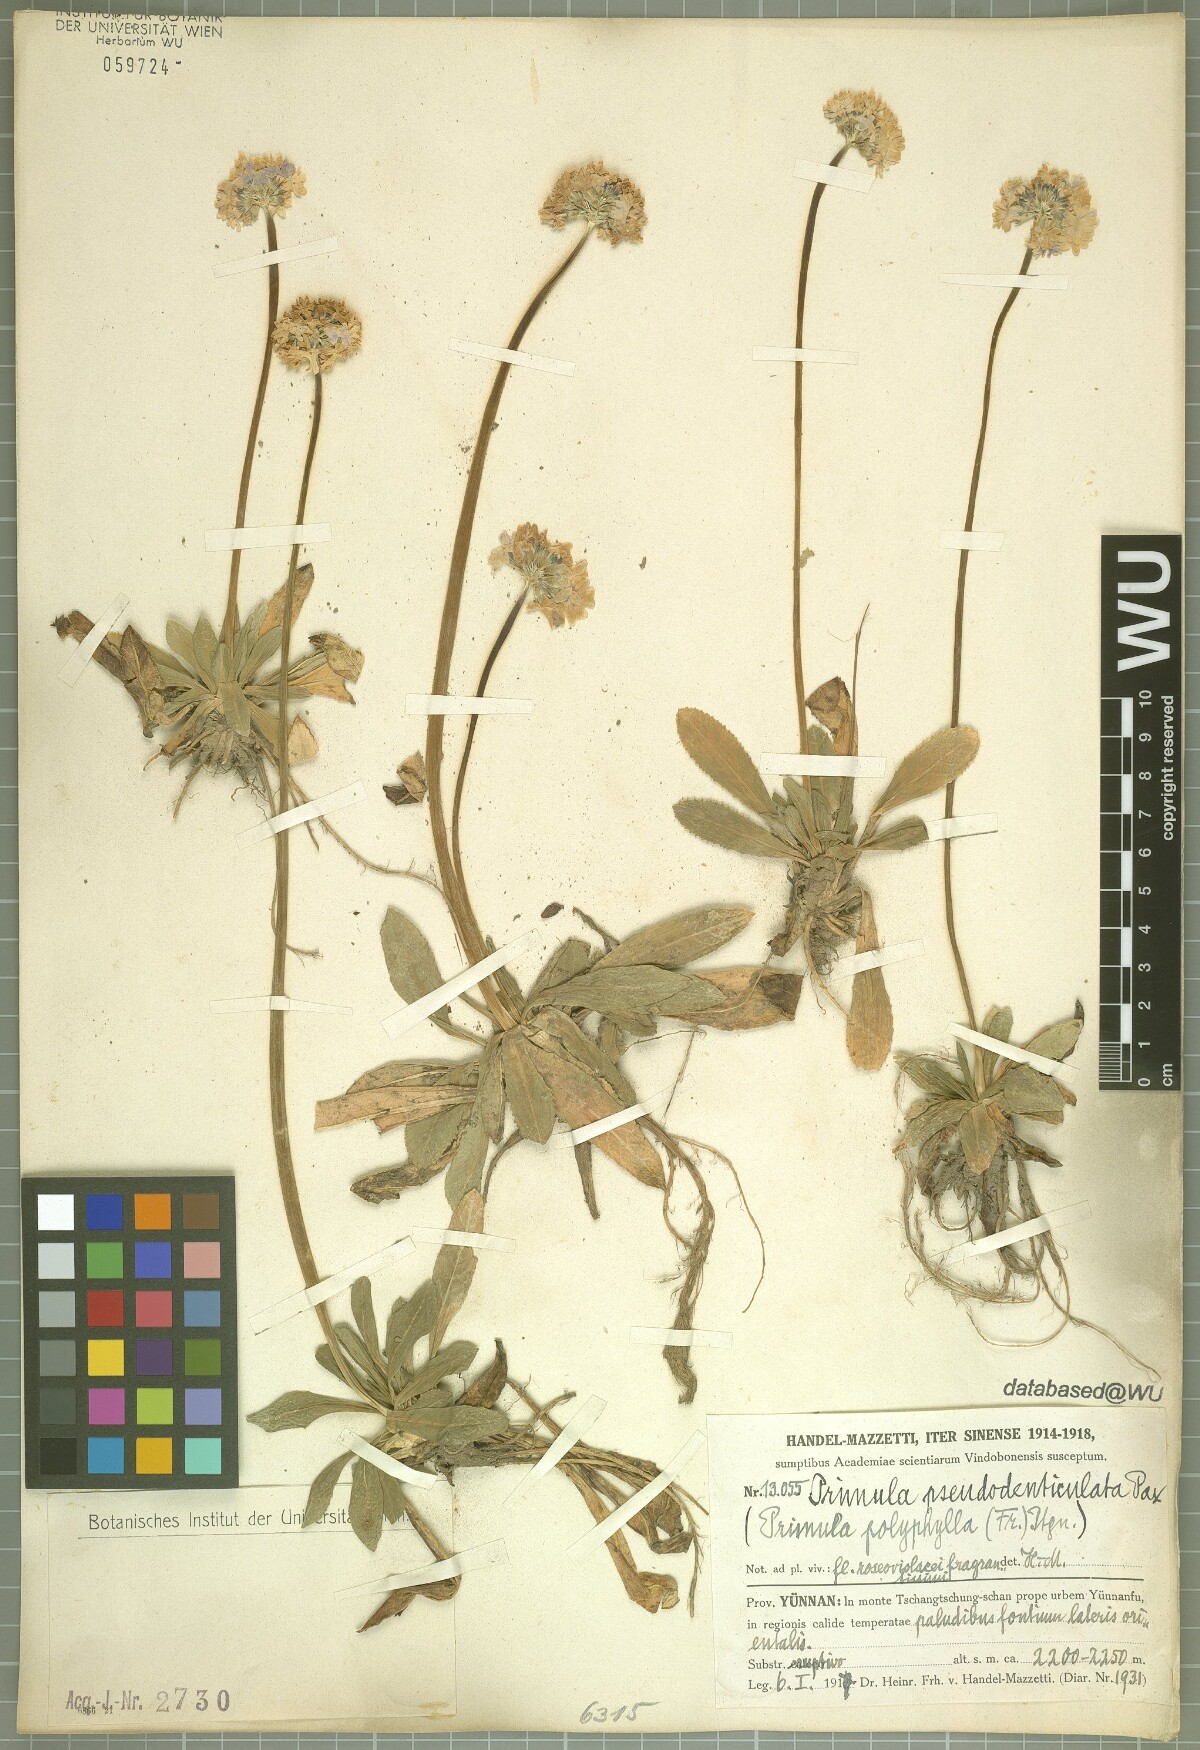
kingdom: Plantae
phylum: Tracheophyta
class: Magnoliopsida
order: Ericales
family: Primulaceae
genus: Primula
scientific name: Primula pseudodenticulata
